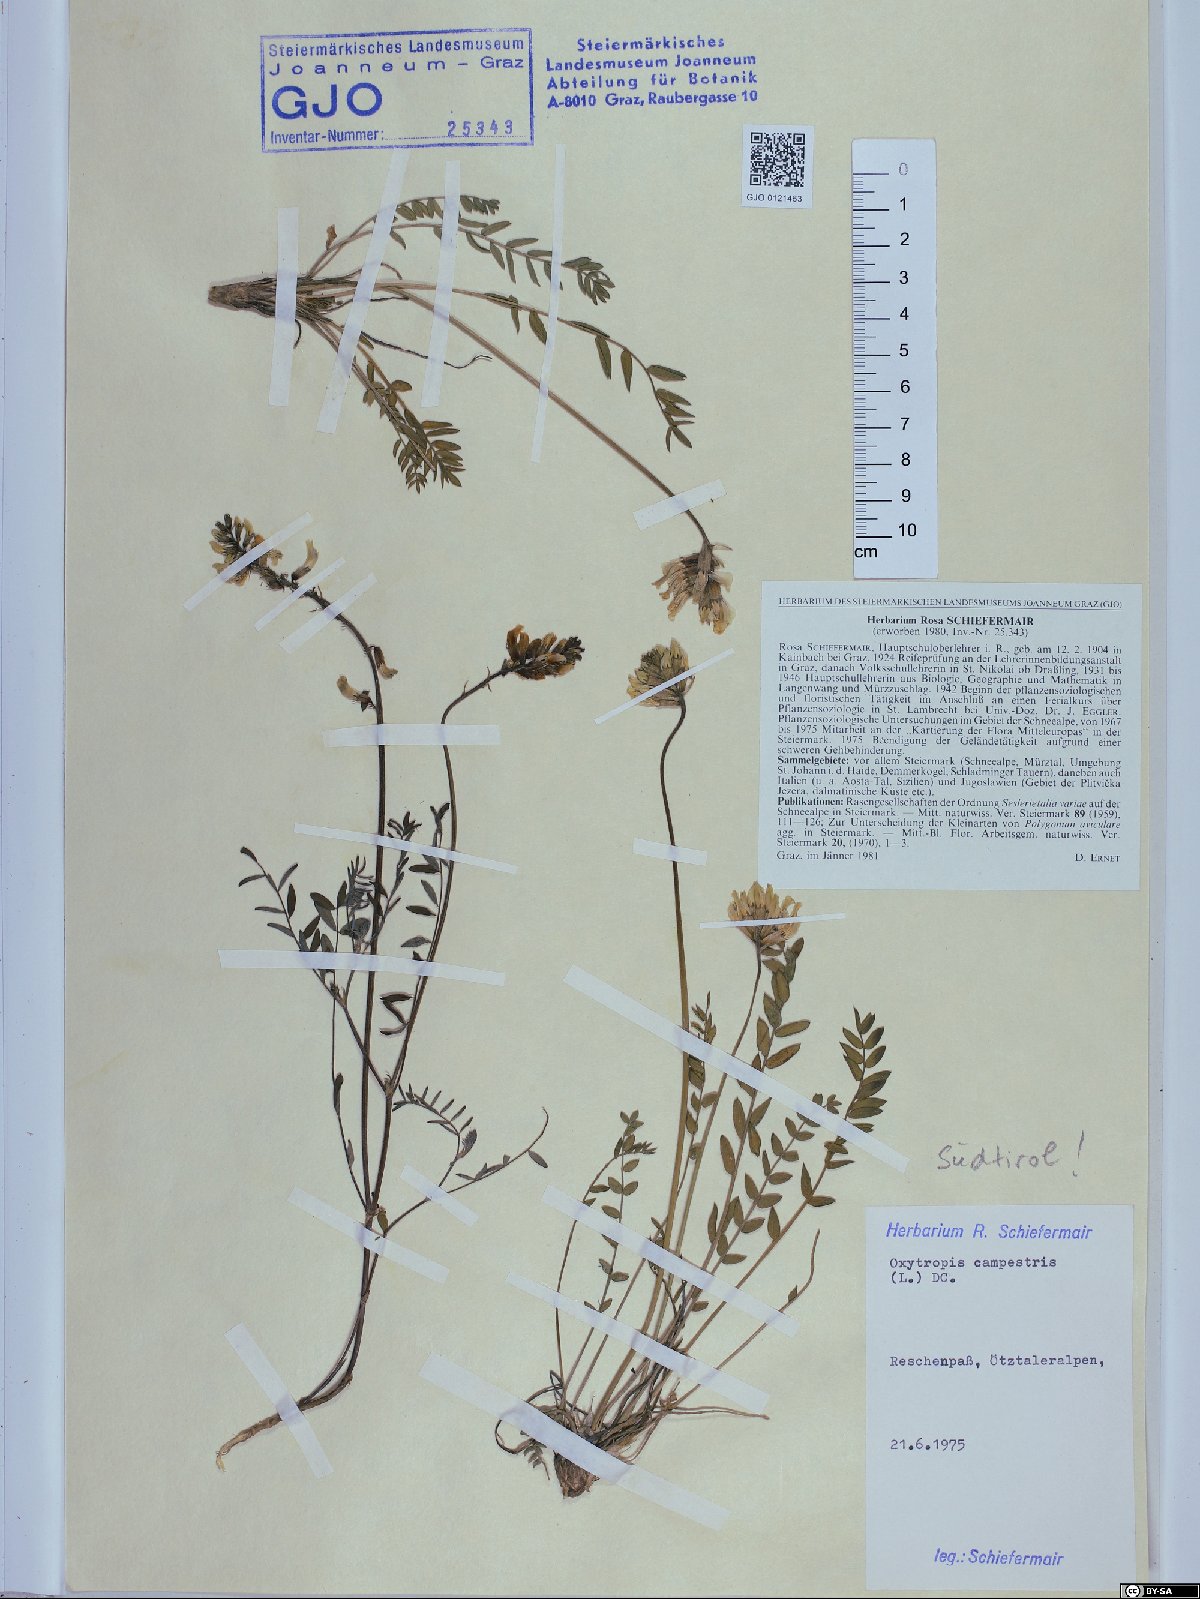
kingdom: Plantae
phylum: Tracheophyta
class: Magnoliopsida
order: Fabales
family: Fabaceae
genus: Oxytropis
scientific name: Oxytropis campestris
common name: Field locoweed
